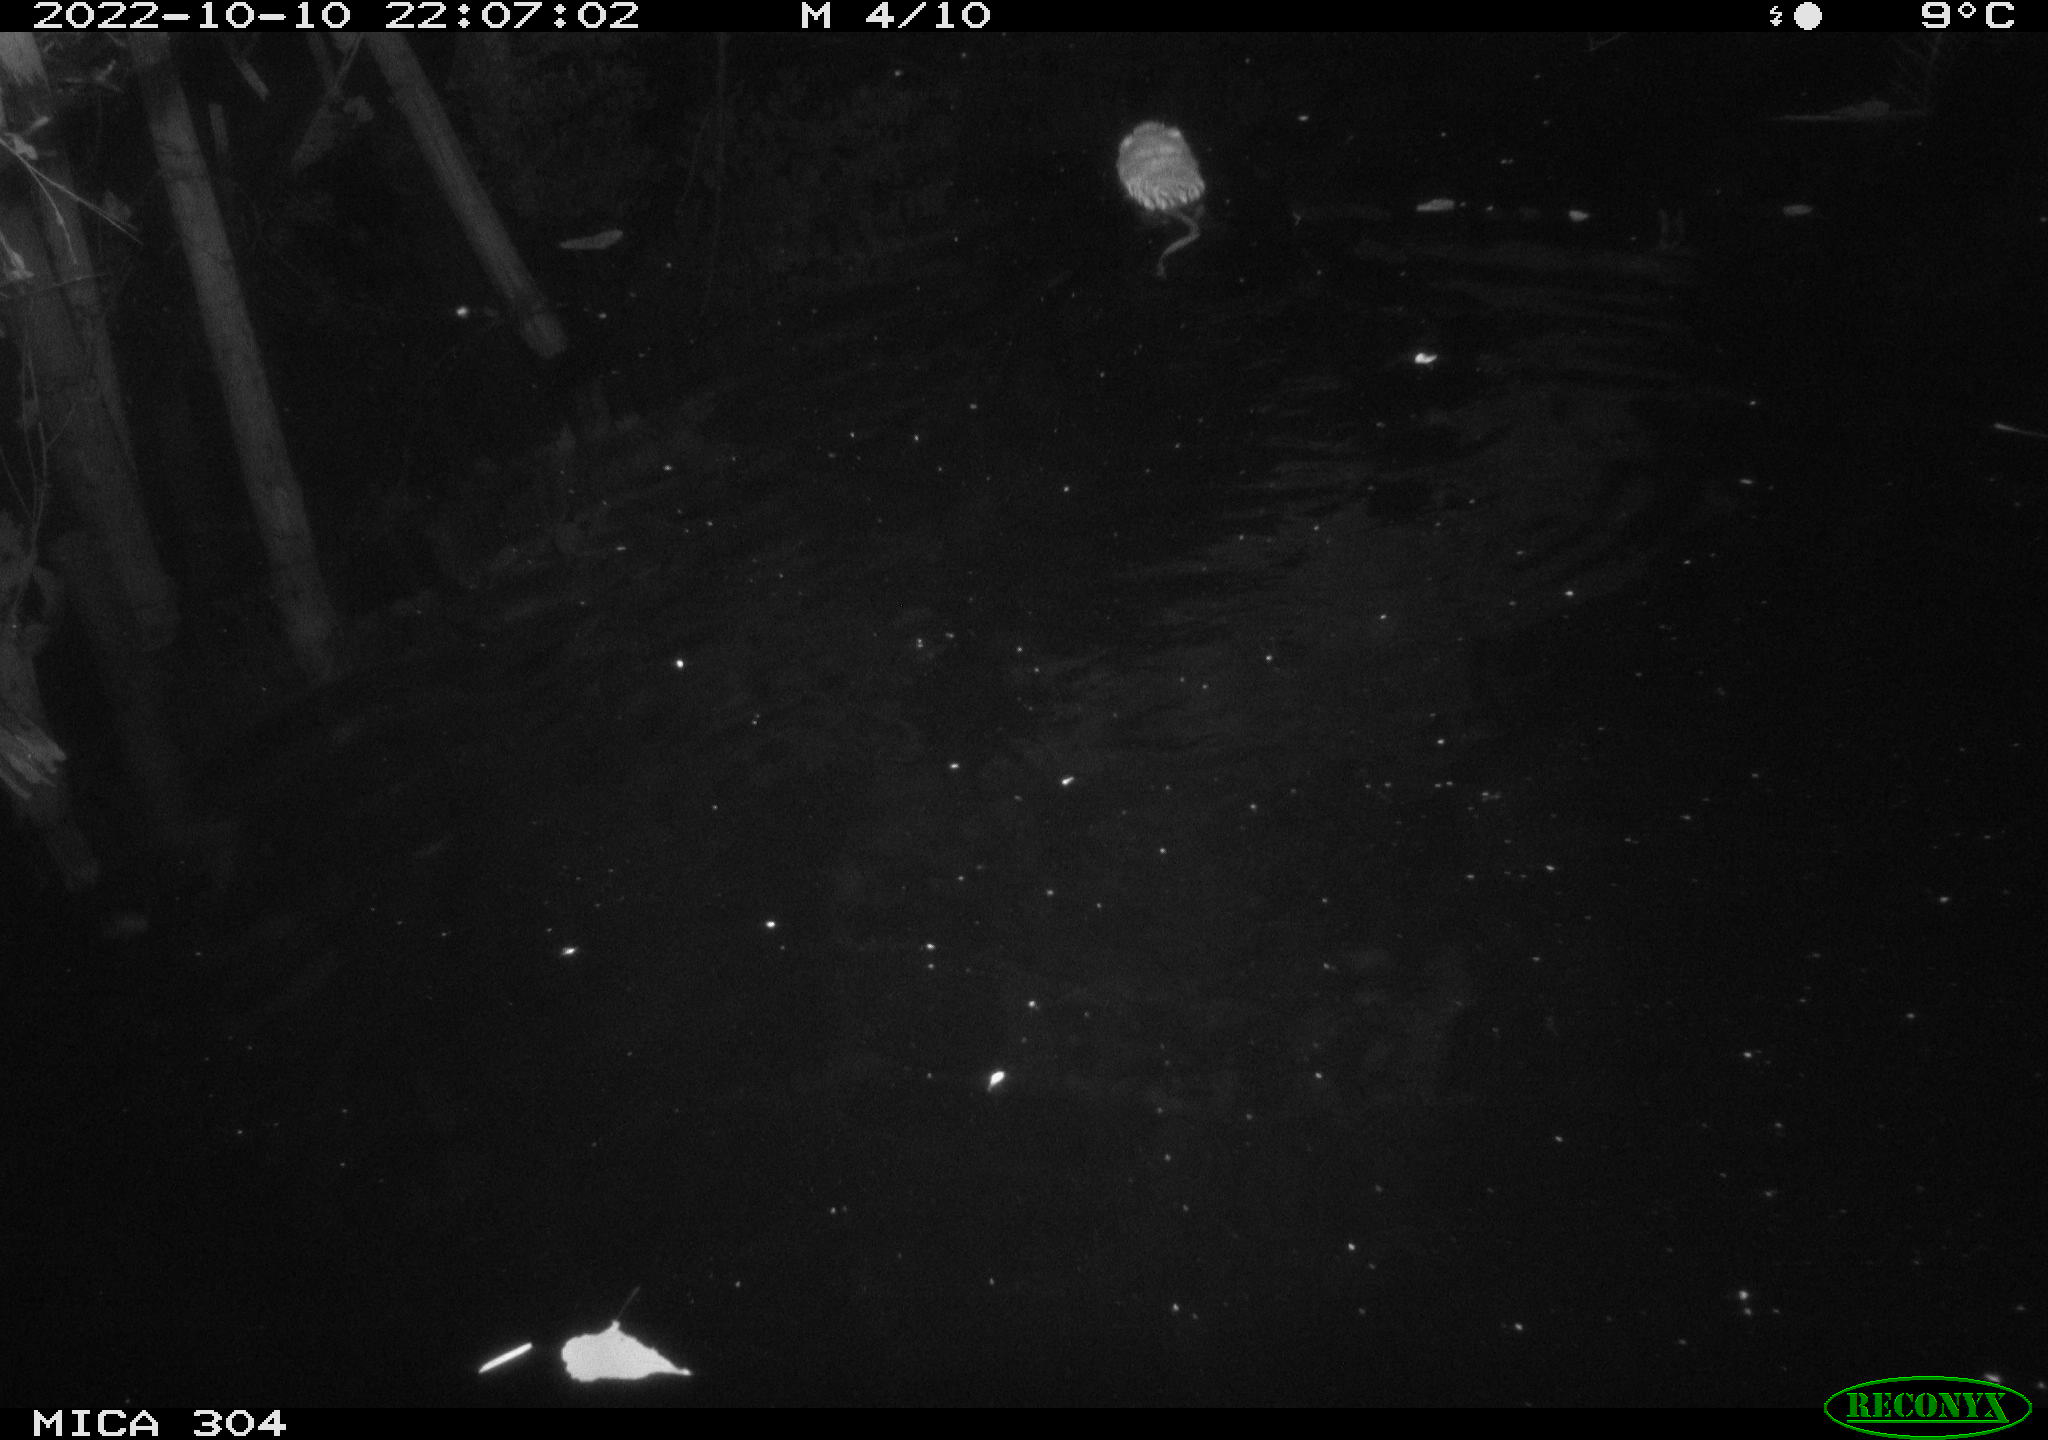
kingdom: Animalia
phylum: Chordata
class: Mammalia
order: Rodentia
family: Cricetidae
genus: Ondatra
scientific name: Ondatra zibethicus
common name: Muskrat
